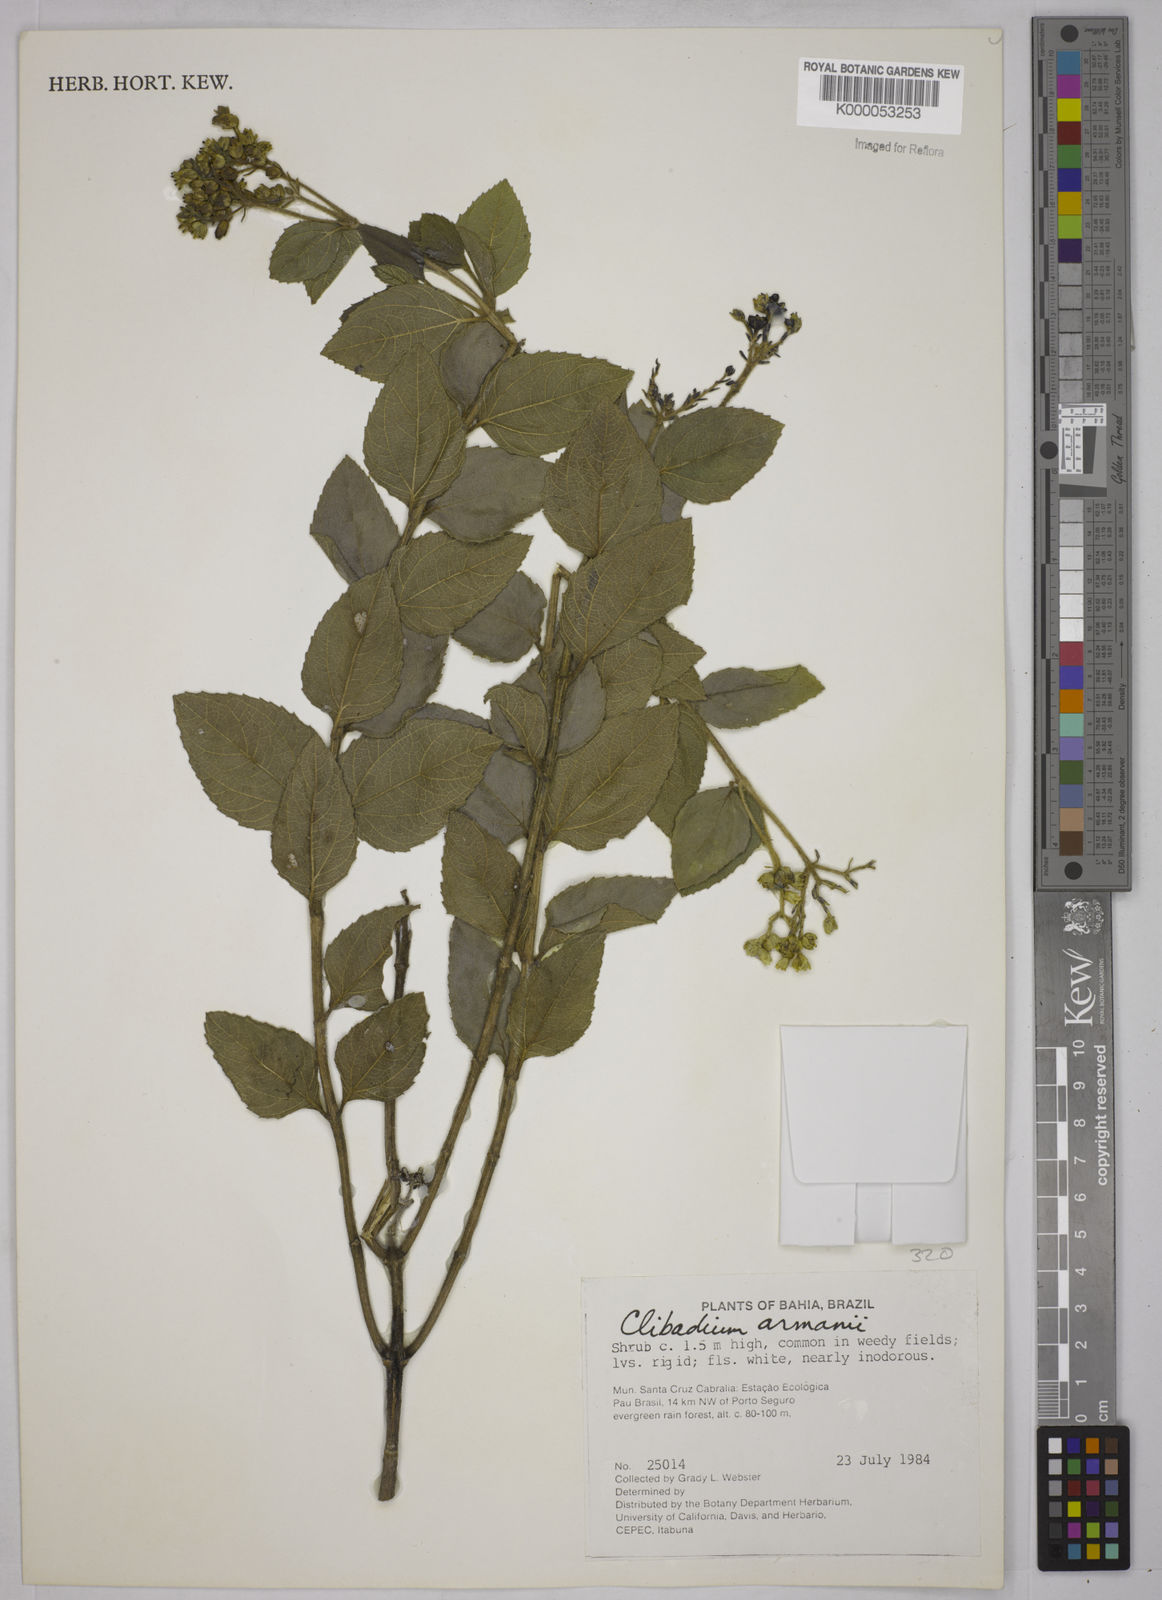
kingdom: Plantae
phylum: Tracheophyta
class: Magnoliopsida
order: Asterales
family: Asteraceae
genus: Clibadium
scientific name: Clibadium armanii
